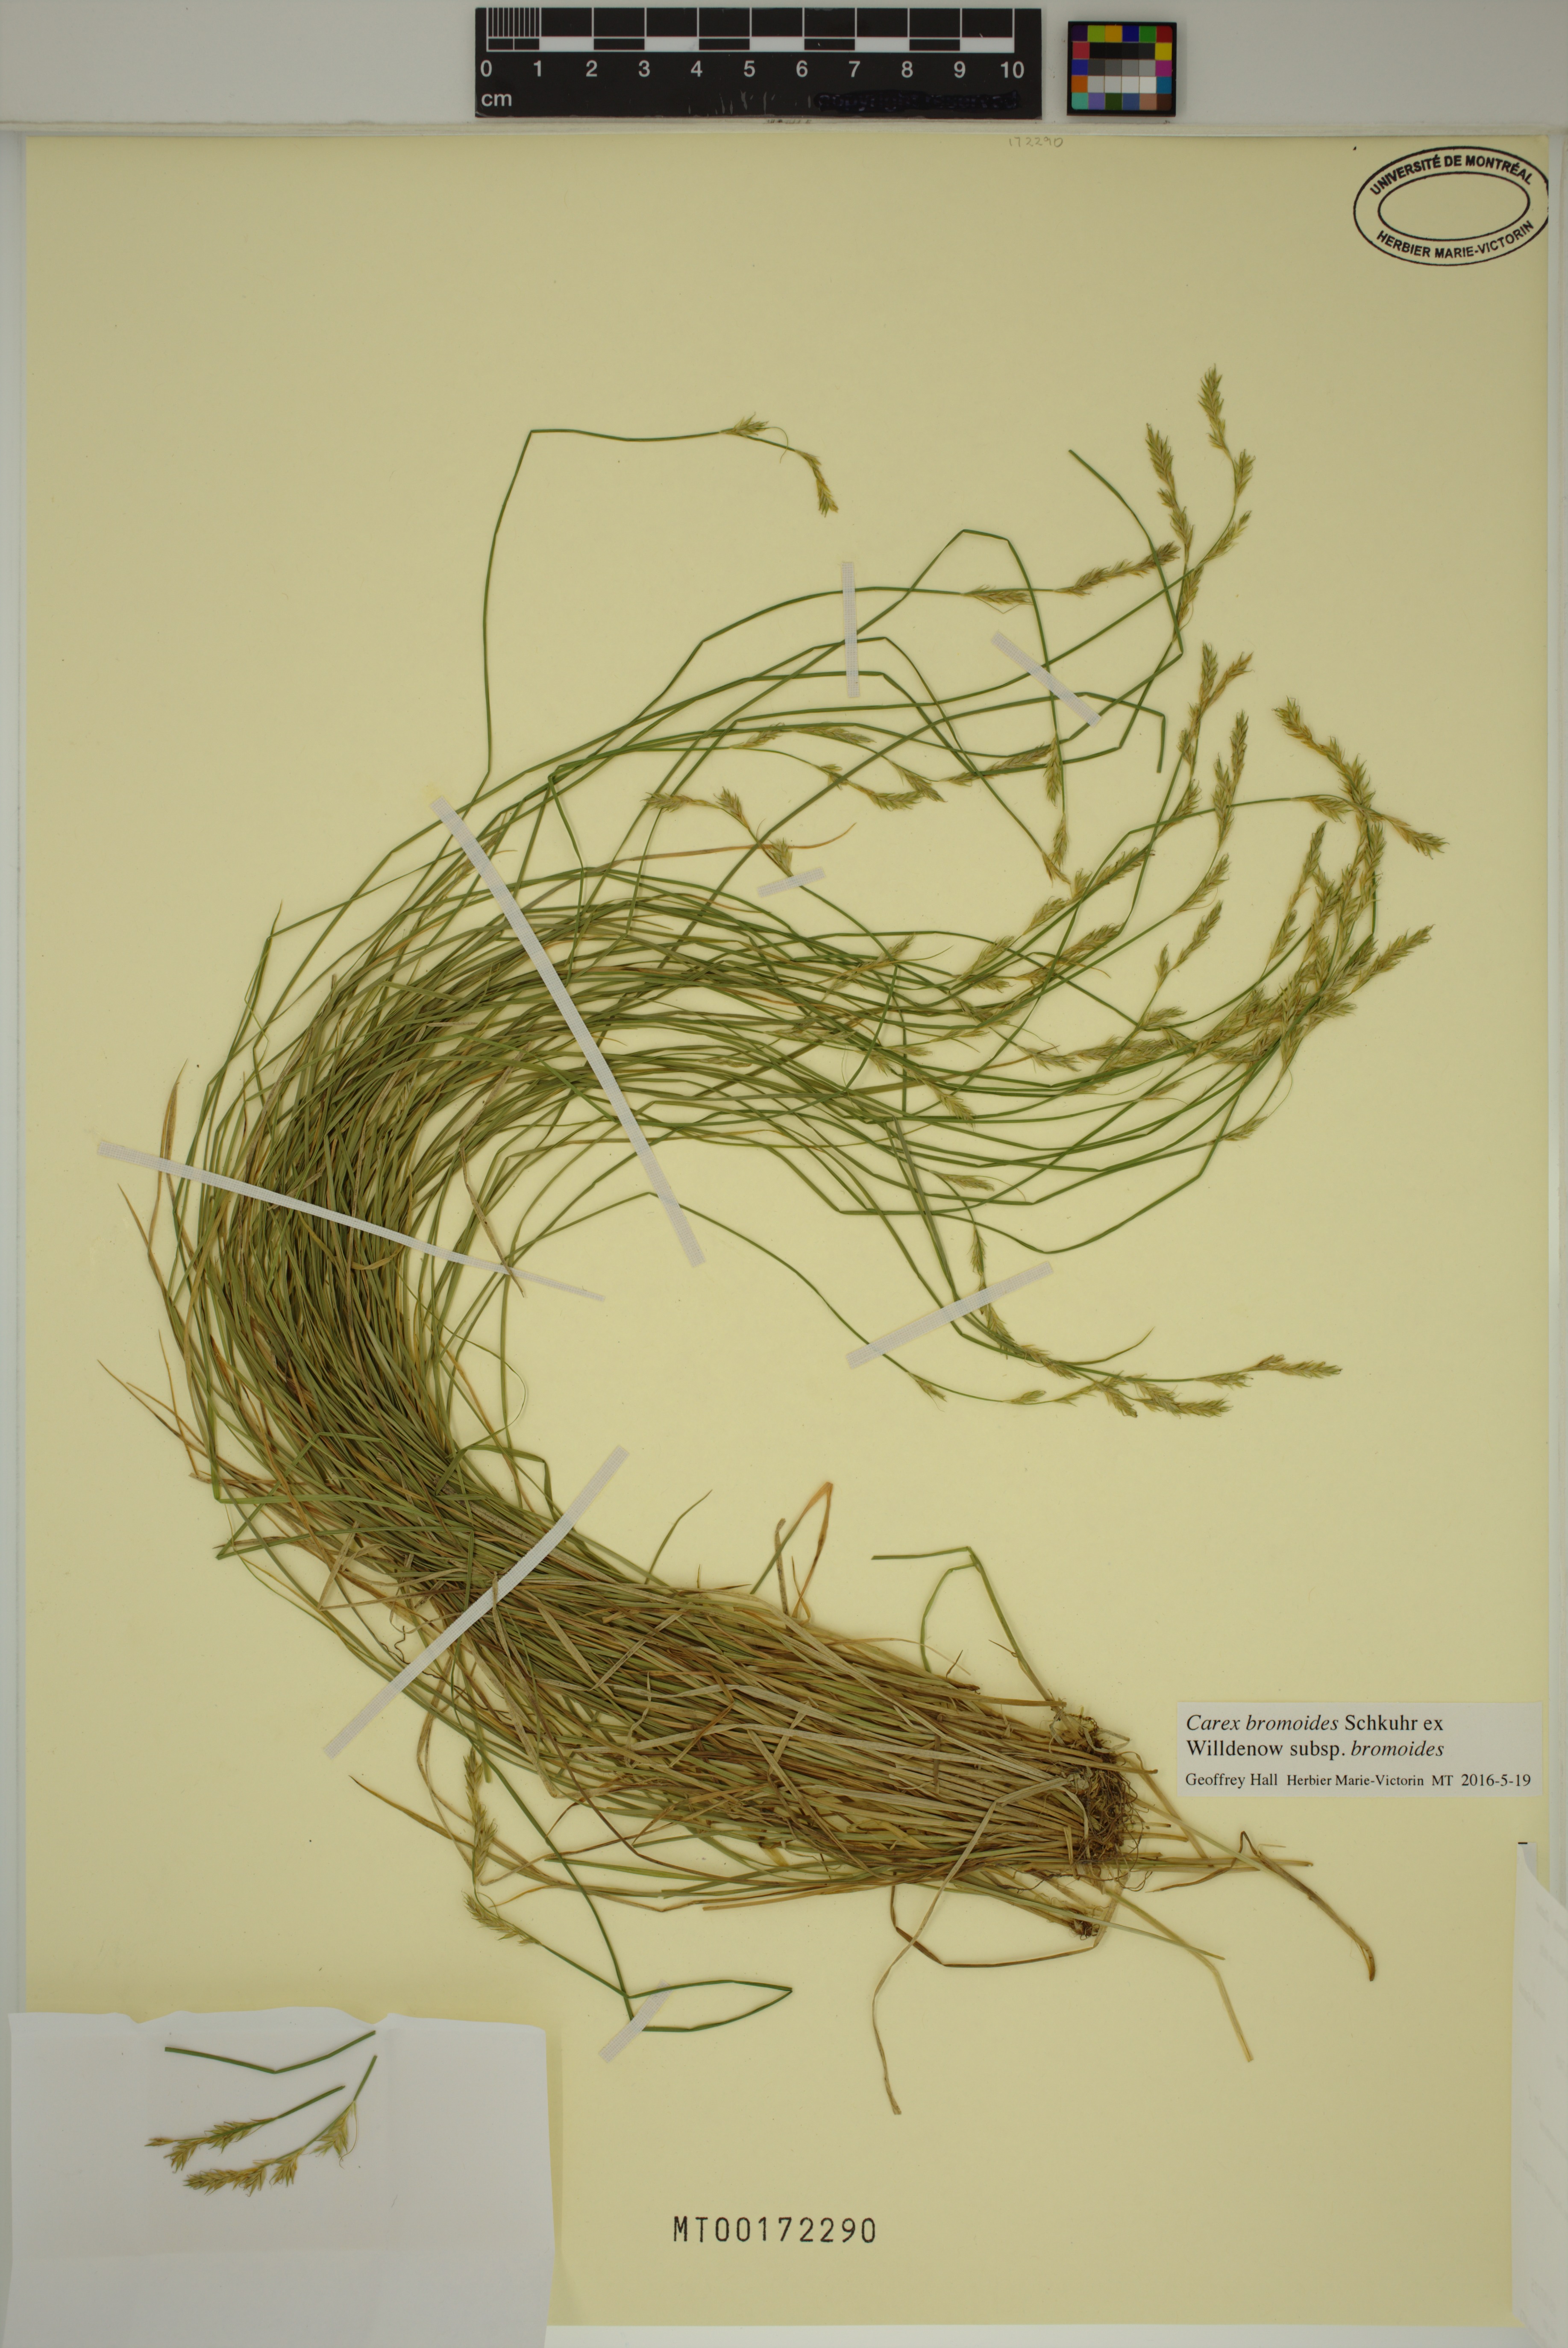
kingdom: Plantae
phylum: Tracheophyta
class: Liliopsida
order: Poales
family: Cyperaceae
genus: Carex
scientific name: Carex bromoides
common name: Brome hummock sedge
